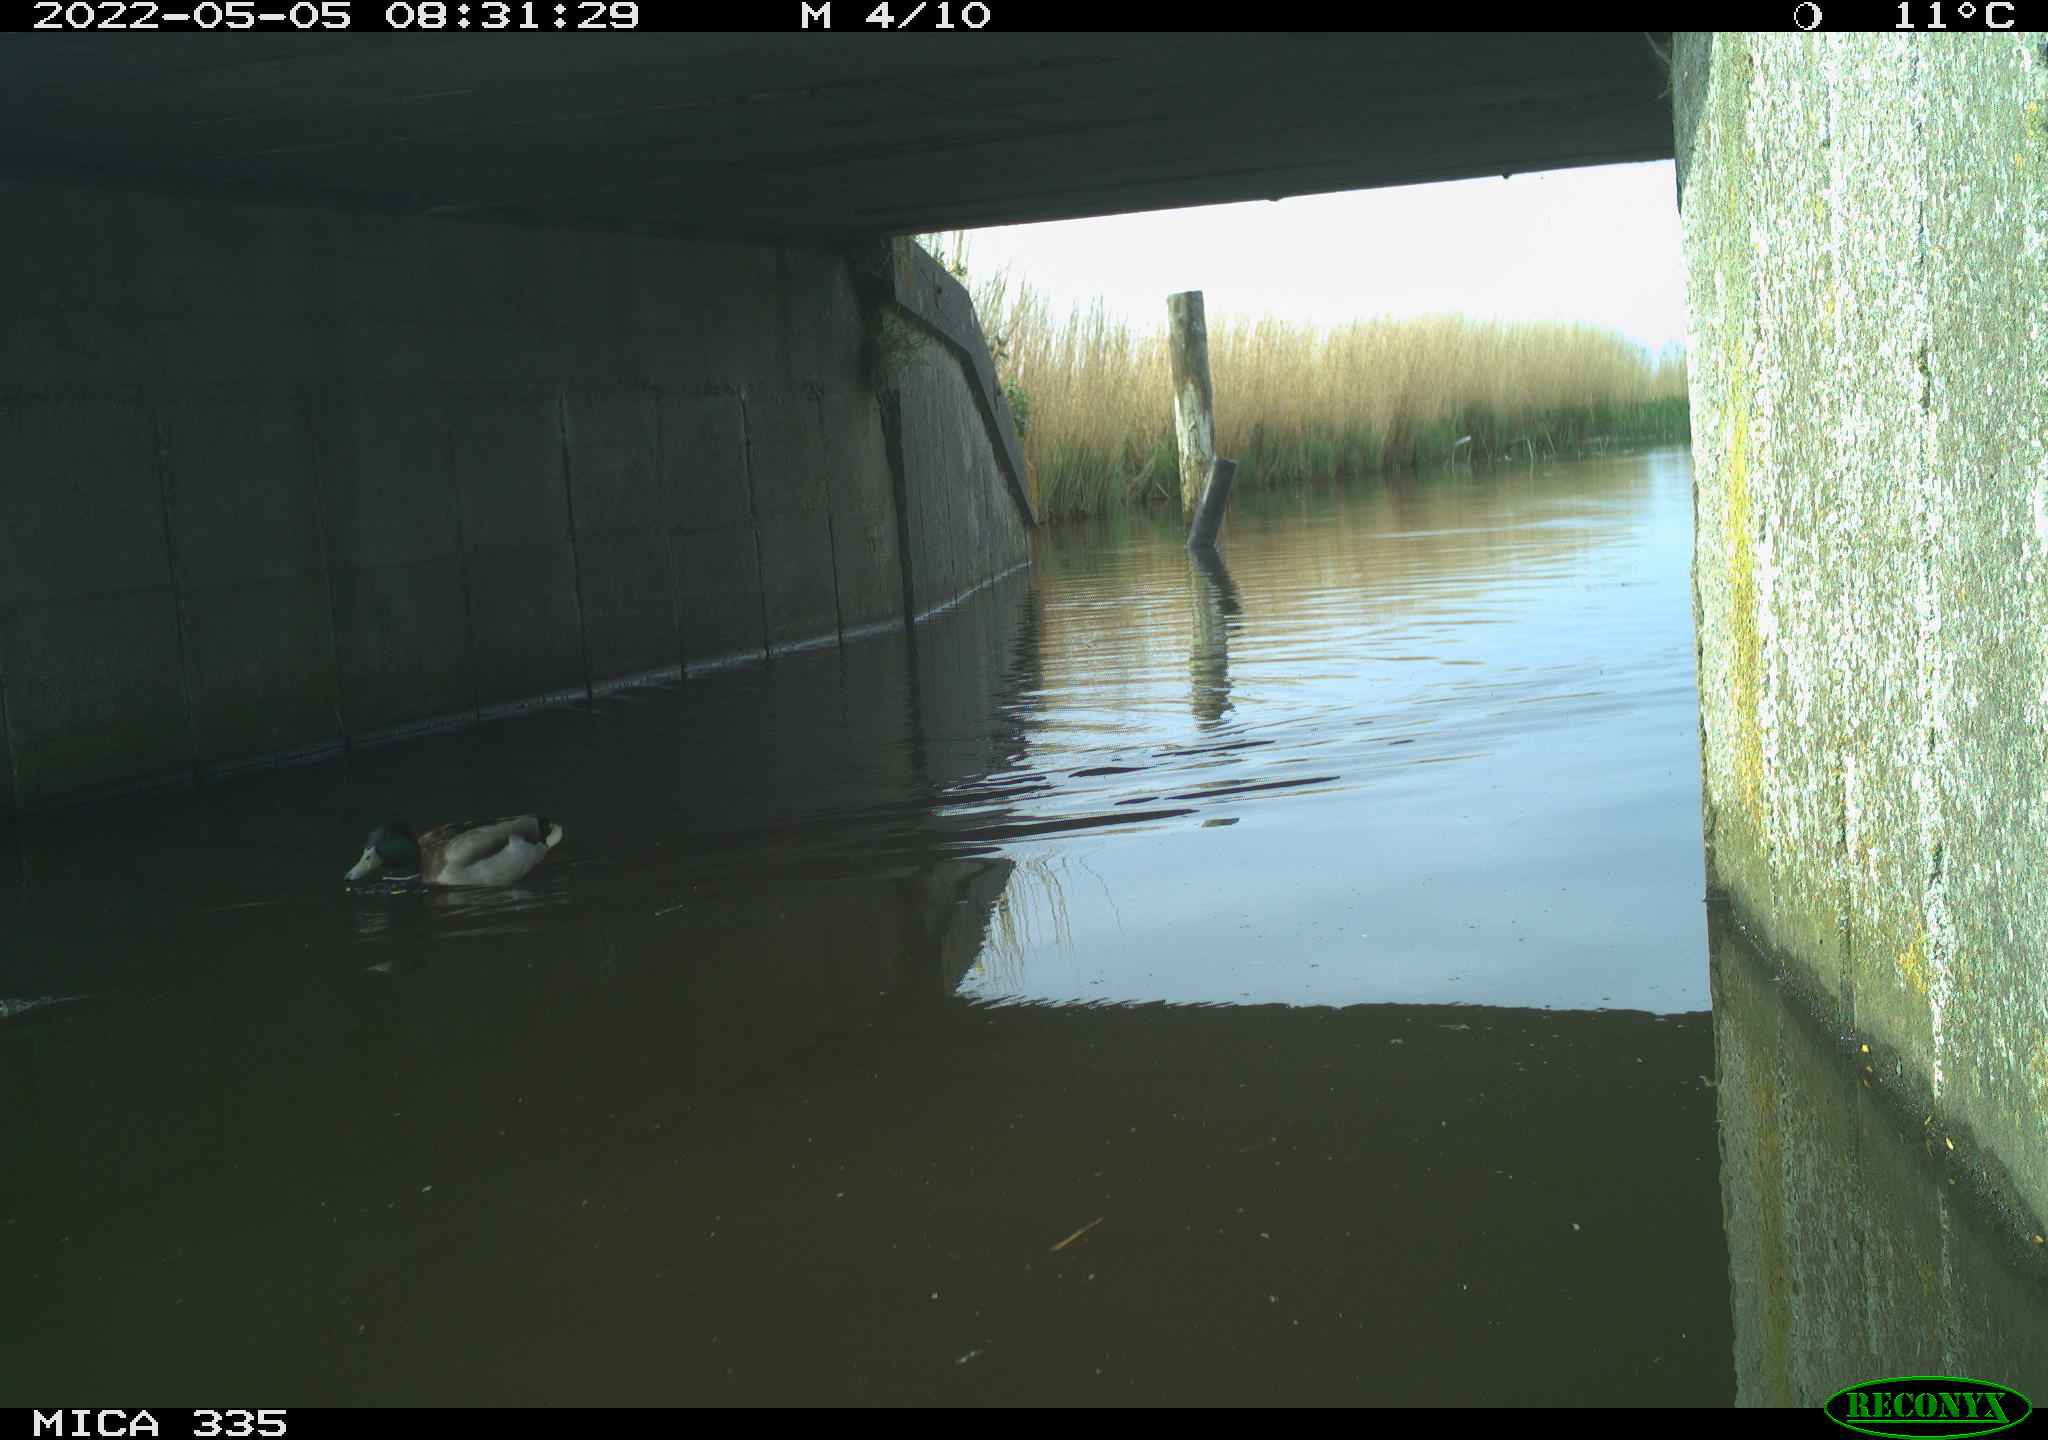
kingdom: Animalia
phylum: Chordata
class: Aves
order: Anseriformes
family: Anatidae
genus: Anas
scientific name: Anas platyrhynchos
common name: Mallard
